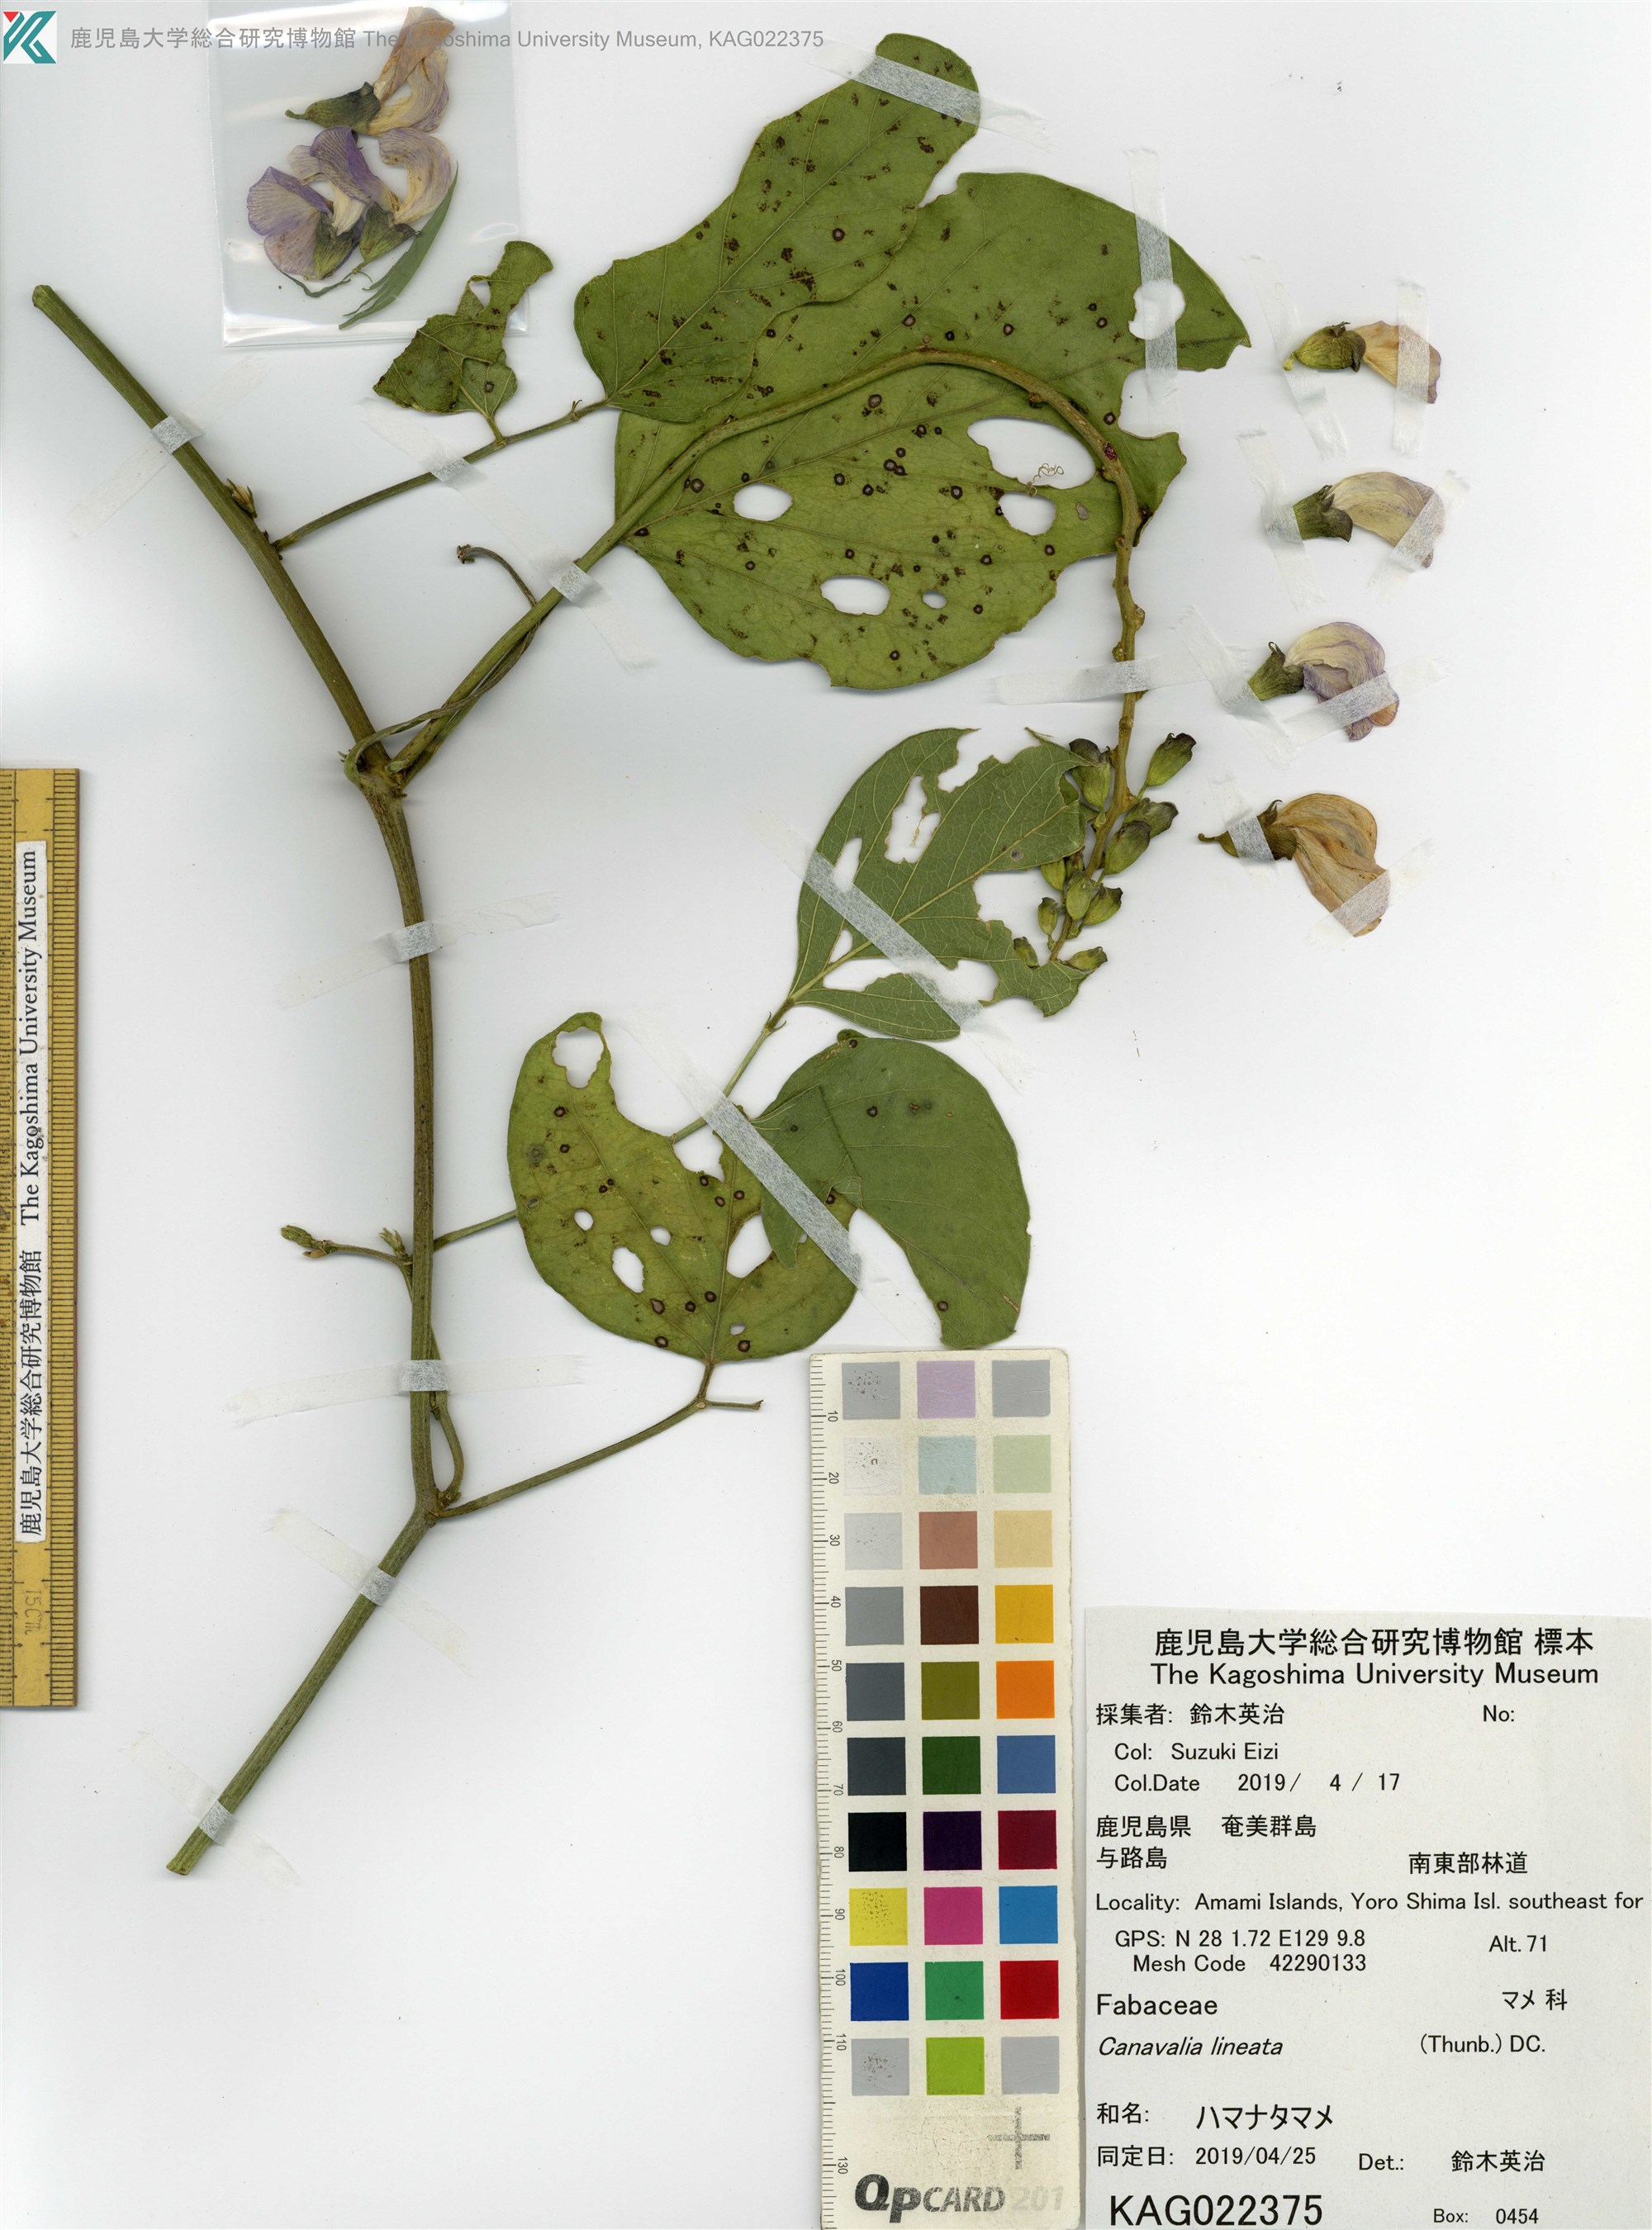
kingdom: Plantae
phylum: Tracheophyta
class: Magnoliopsida
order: Fabales
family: Fabaceae
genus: Canavalia
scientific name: Canavalia lineata
